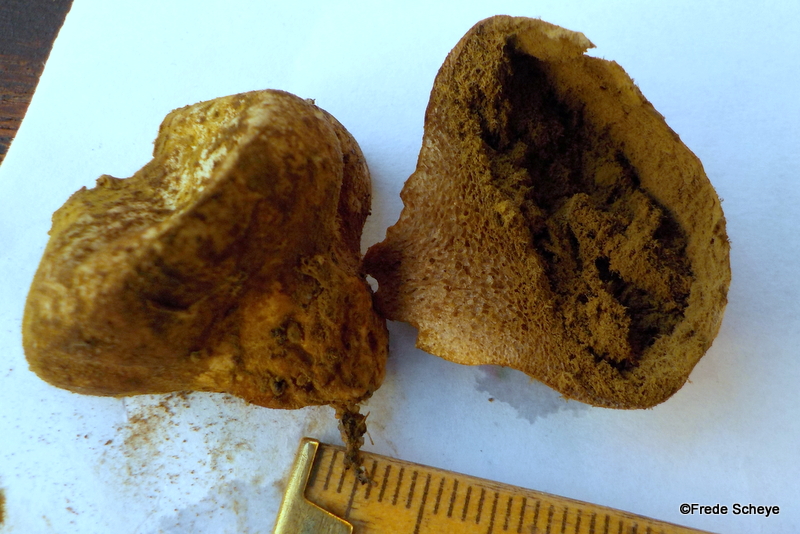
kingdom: Fungi
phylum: Basidiomycota
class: Agaricomycetes
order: Agaricales
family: Lycoperdaceae
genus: Lycoperdon
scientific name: Lycoperdon pratense
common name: flad støvbold
